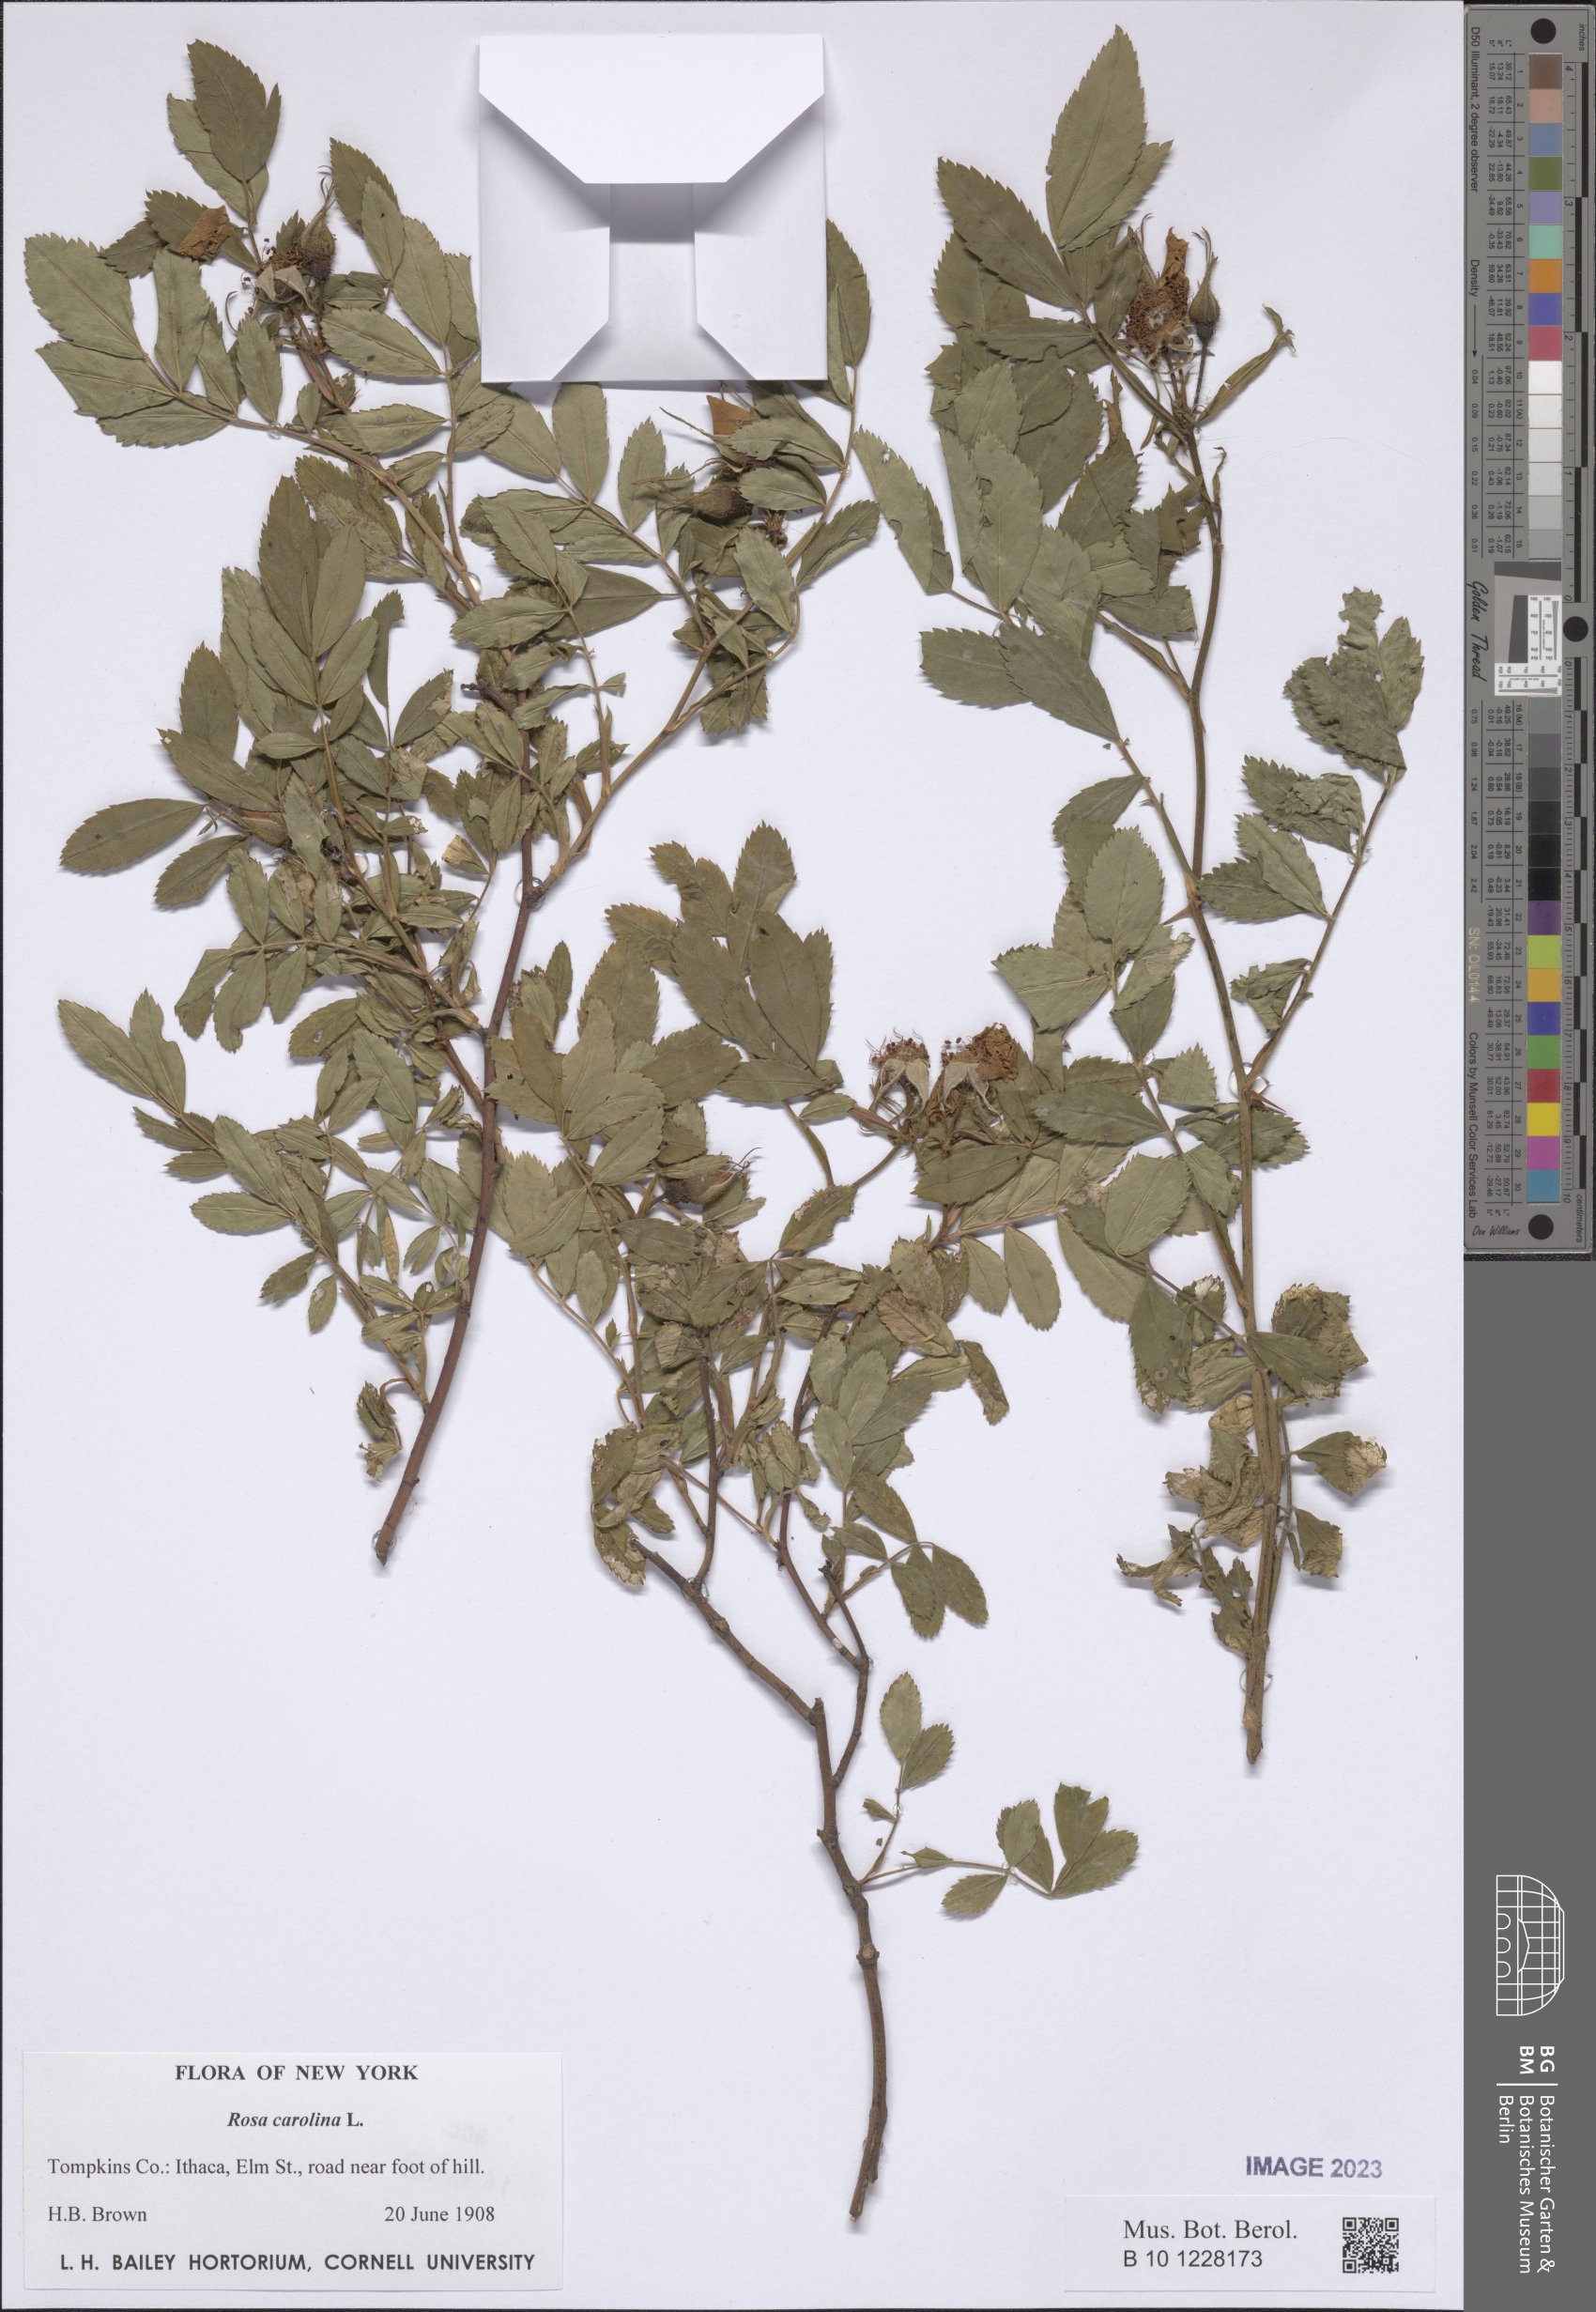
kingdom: Plantae
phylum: Tracheophyta
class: Magnoliopsida
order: Rosales
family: Rosaceae
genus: Rosa
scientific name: Rosa carolina
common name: Pasture rose
